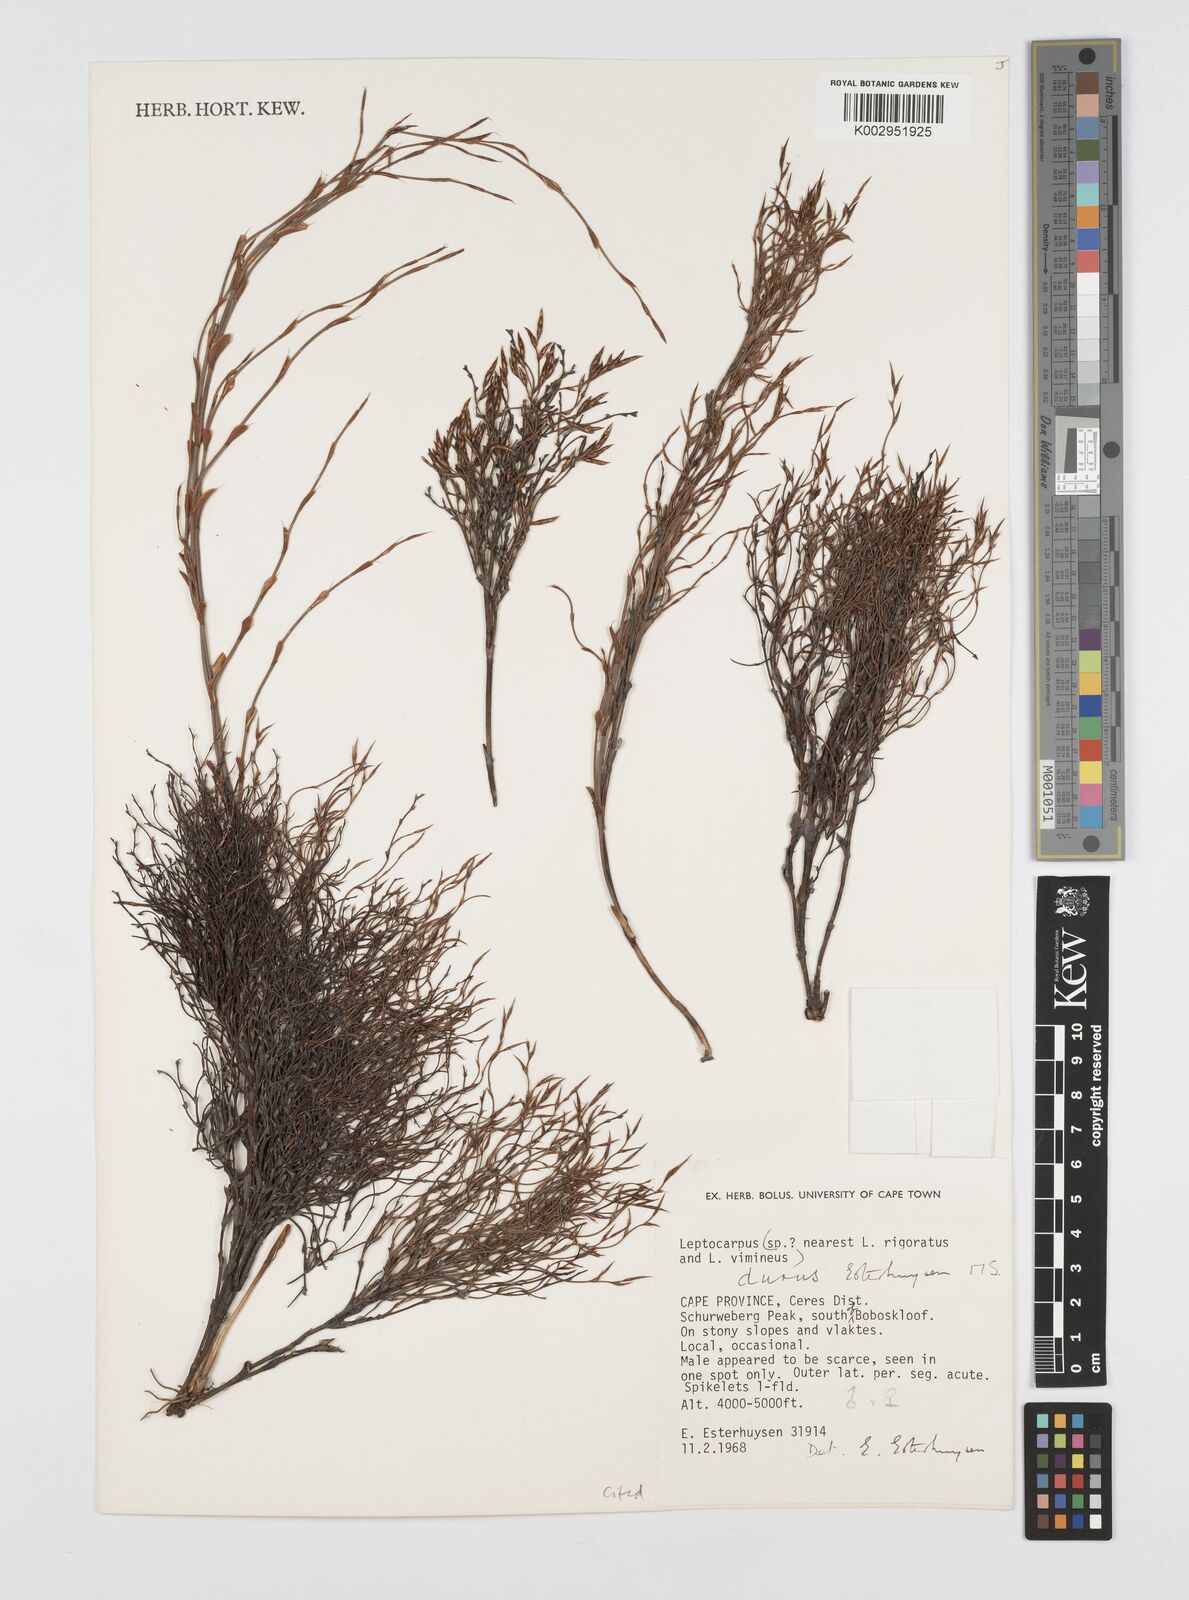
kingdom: Plantae
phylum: Tracheophyta
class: Liliopsida
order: Poales
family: Restionaceae
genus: Restio
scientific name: Restio durus
